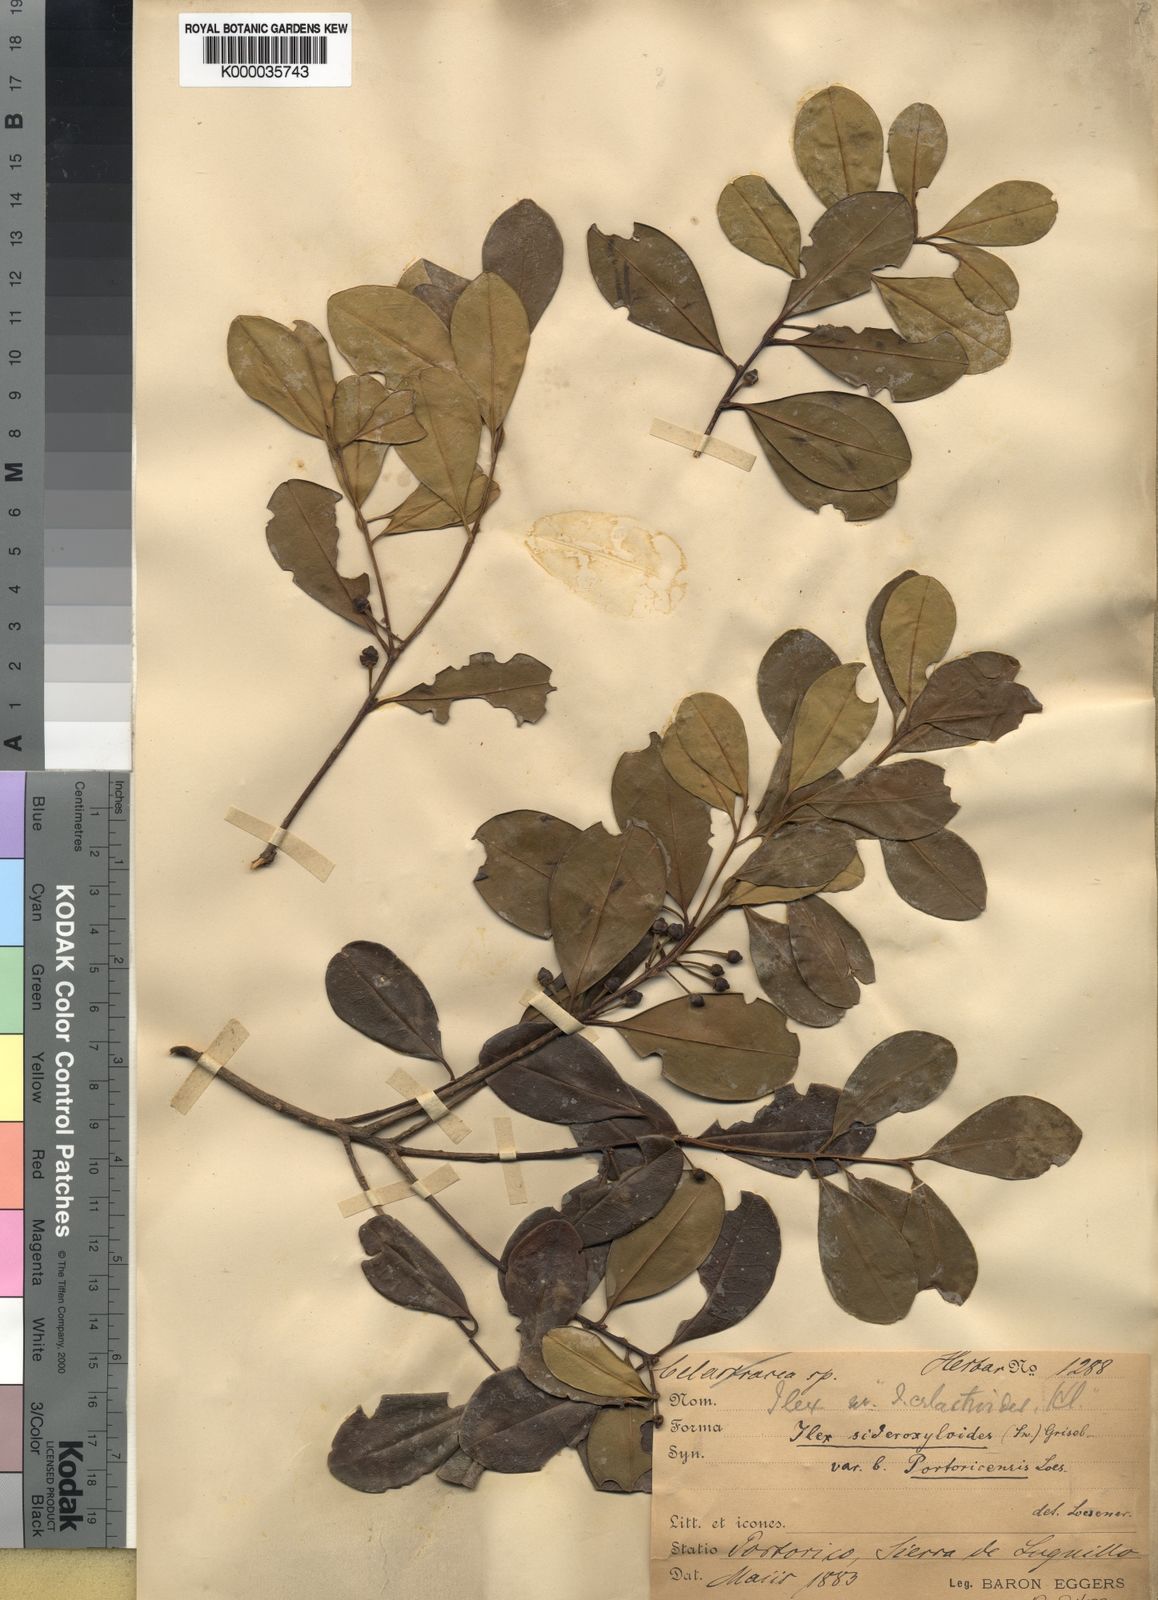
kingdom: Plantae
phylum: Tracheophyta
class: Magnoliopsida
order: Aquifoliales
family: Aquifoliaceae
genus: Ilex
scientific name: Ilex sideroxyloides
